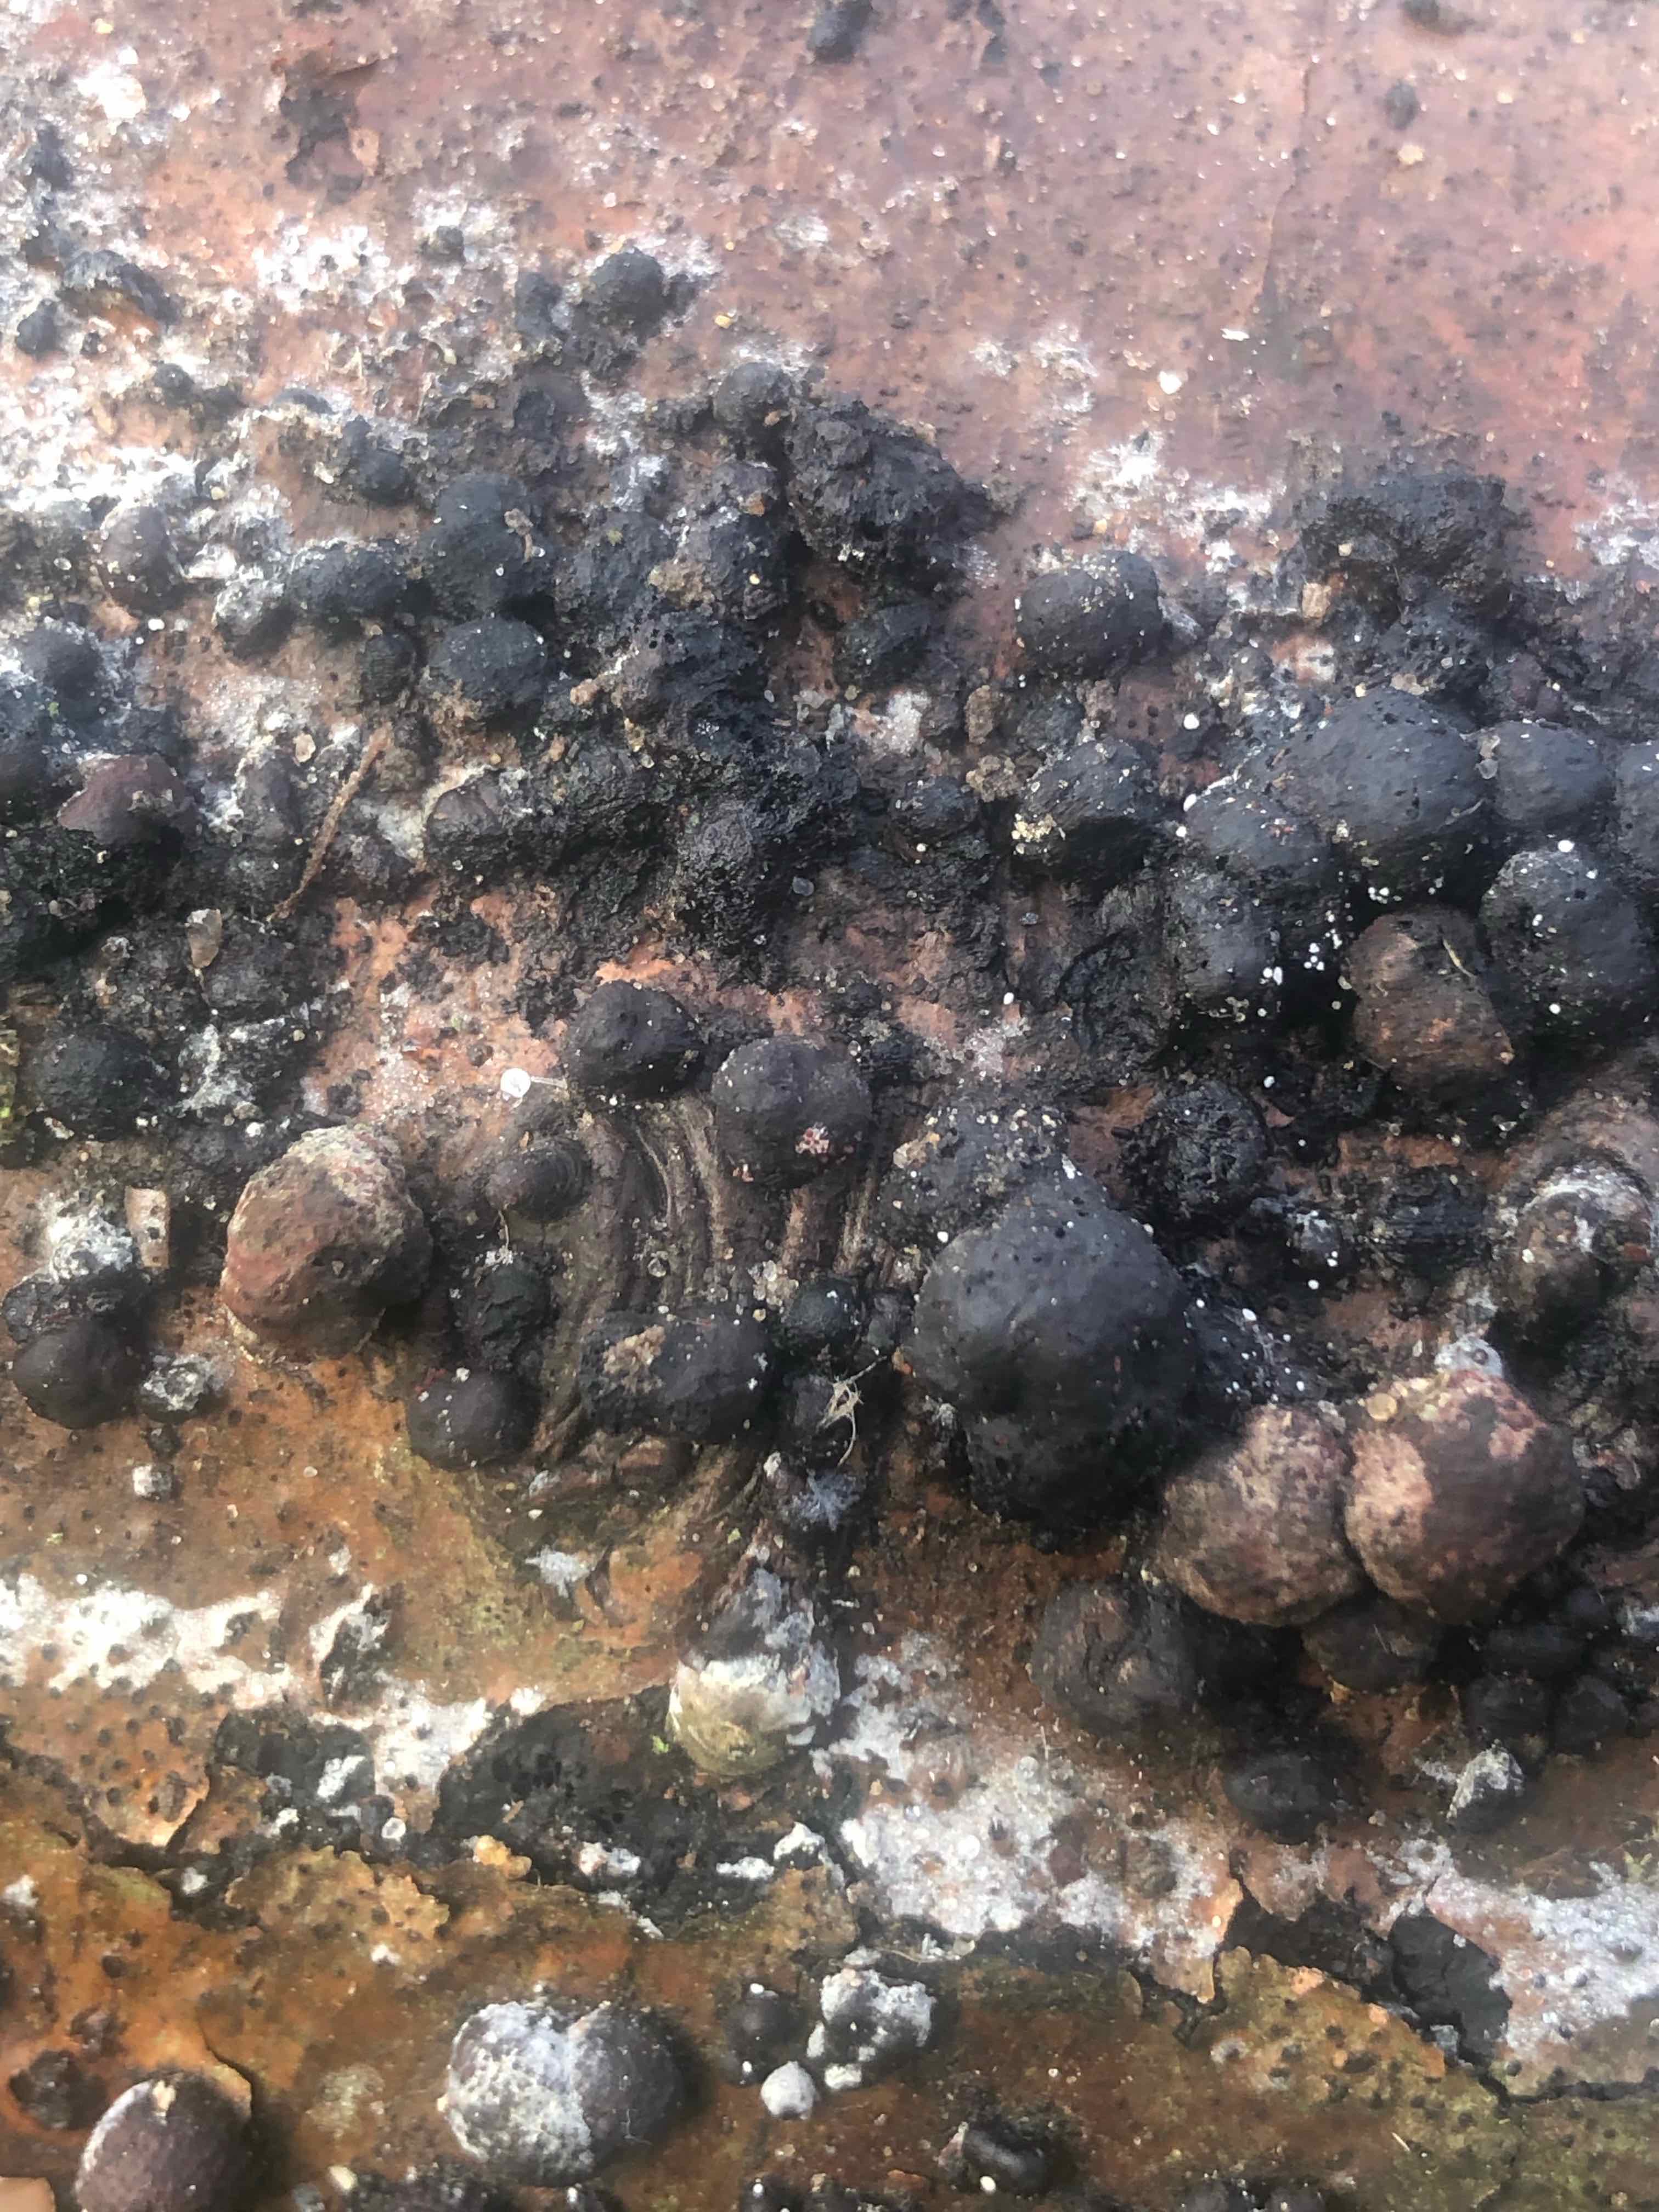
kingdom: Fungi
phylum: Ascomycota
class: Sordariomycetes
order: Xylariales
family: Hypoxylaceae
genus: Hypoxylon
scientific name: Hypoxylon fragiforme
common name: kuljordbær
